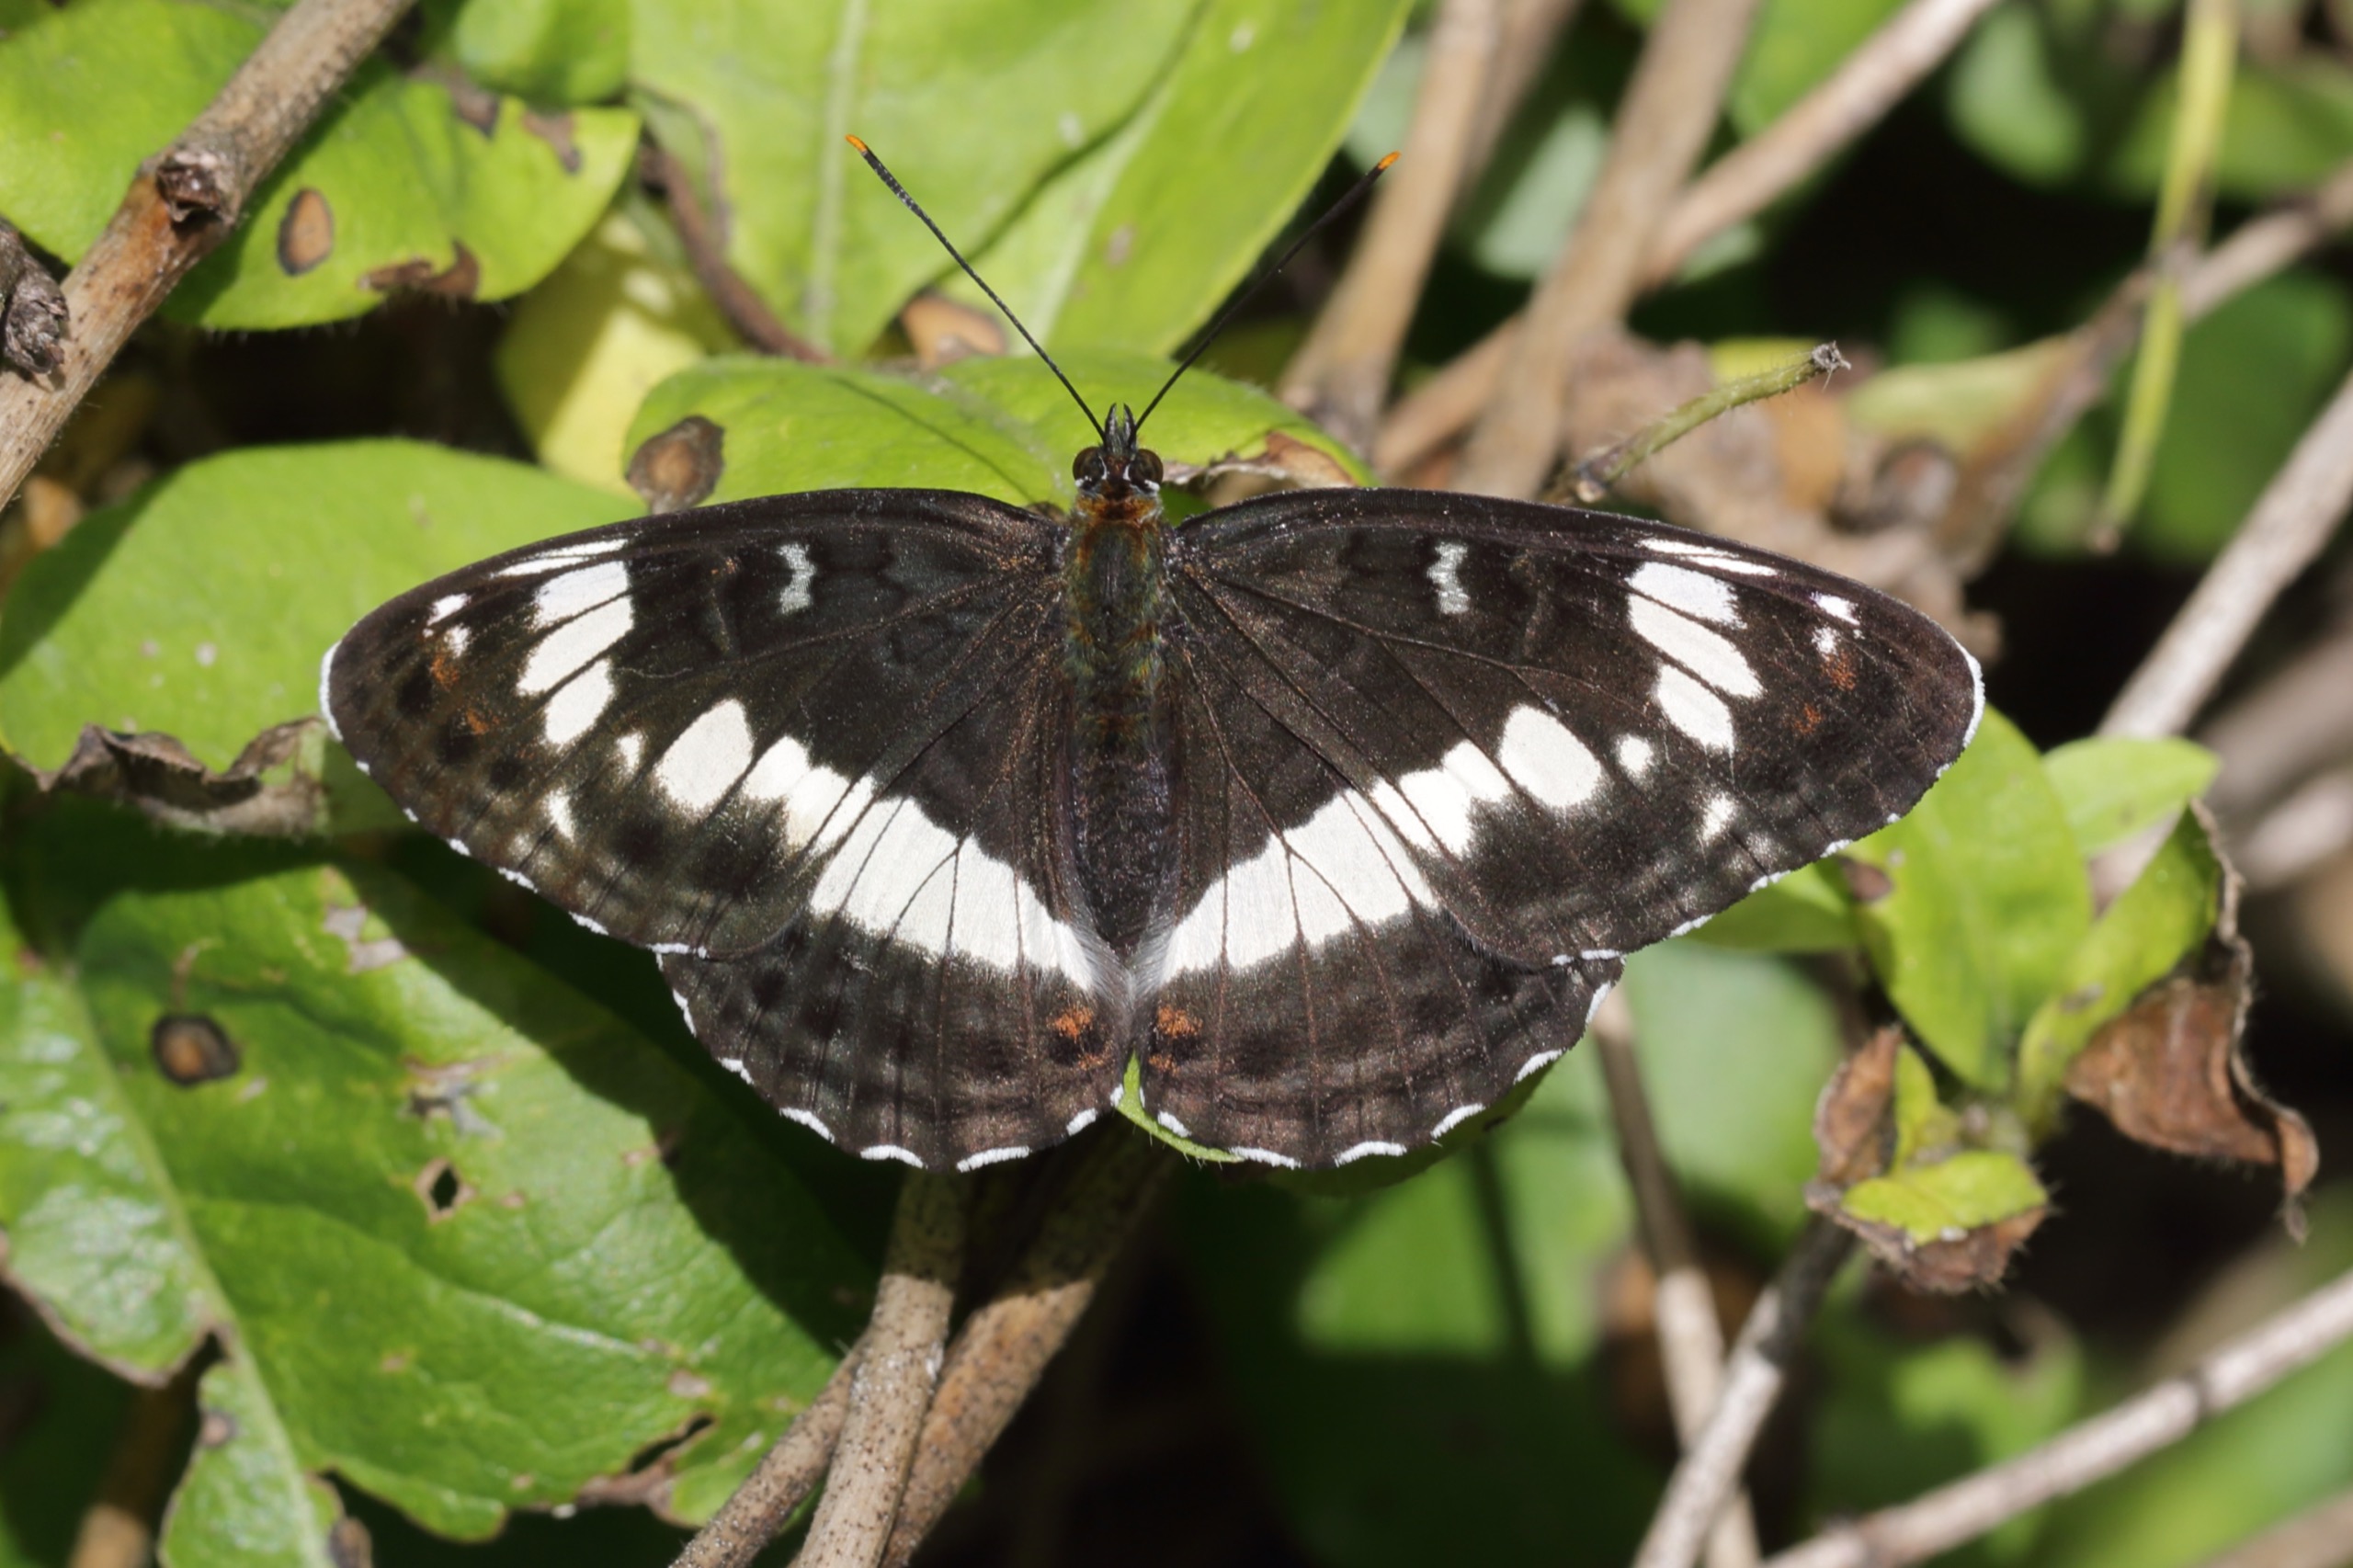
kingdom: Animalia
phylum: Arthropoda
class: Insecta
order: Lepidoptera
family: Nymphalidae
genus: Ladoga
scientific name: Ladoga camilla
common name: Hvid admiral
